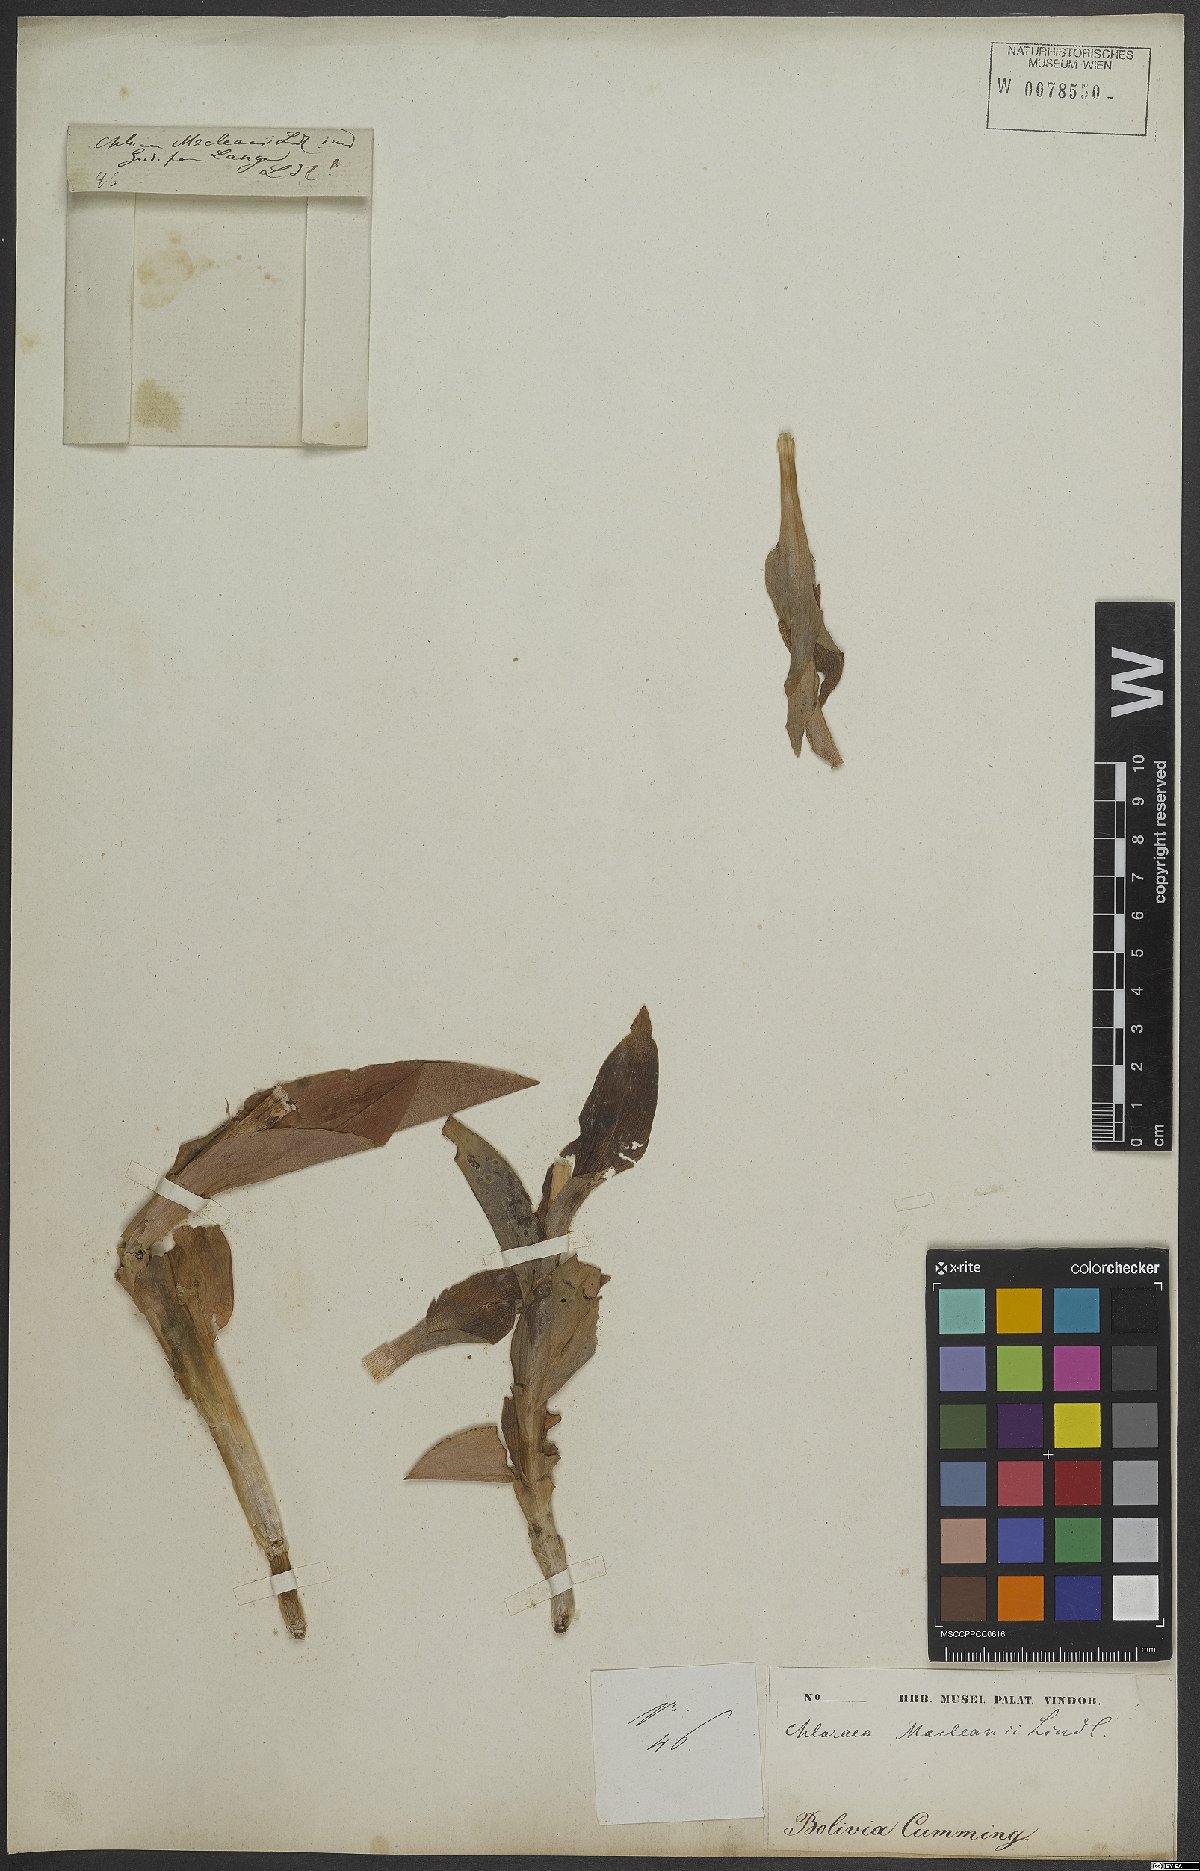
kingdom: Plantae
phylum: Tracheophyta
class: Liliopsida
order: Asparagales
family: Orchidaceae
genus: Chloraea
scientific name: Chloraea venosa
